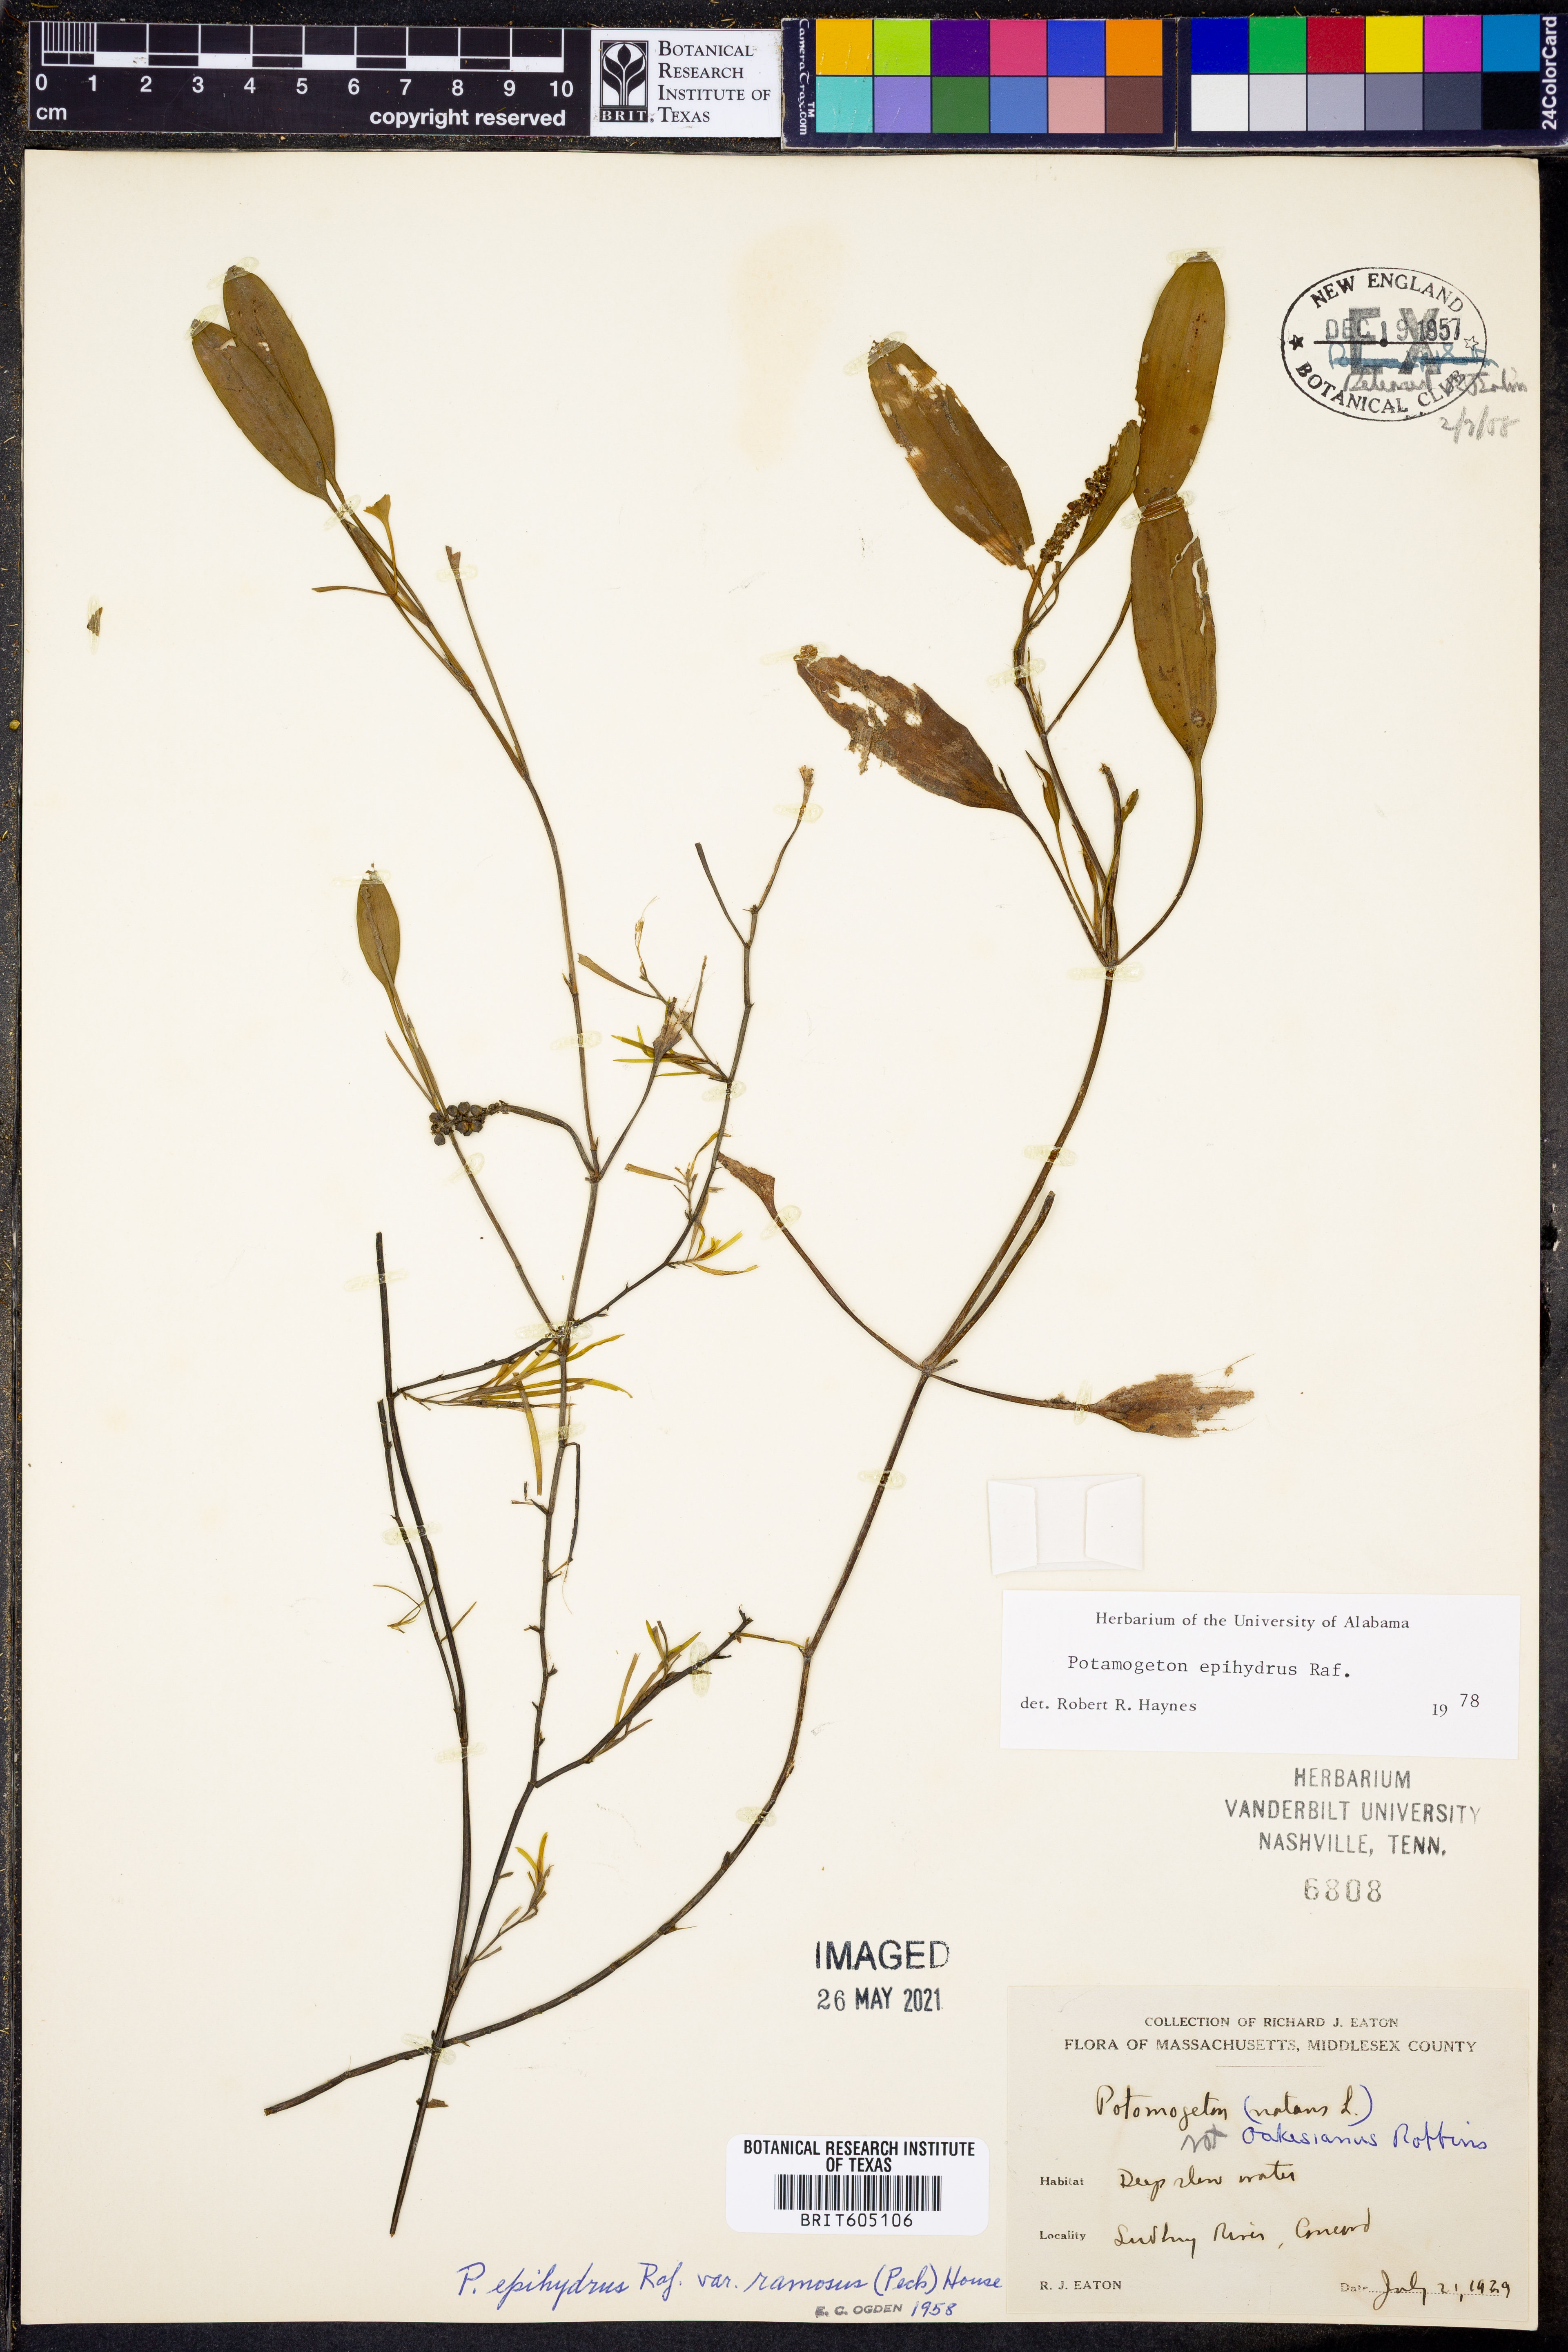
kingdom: Plantae
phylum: Tracheophyta
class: Liliopsida
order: Alismatales
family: Potamogetonaceae
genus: Potamogeton
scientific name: Potamogeton epihydrus
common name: American pondweed
